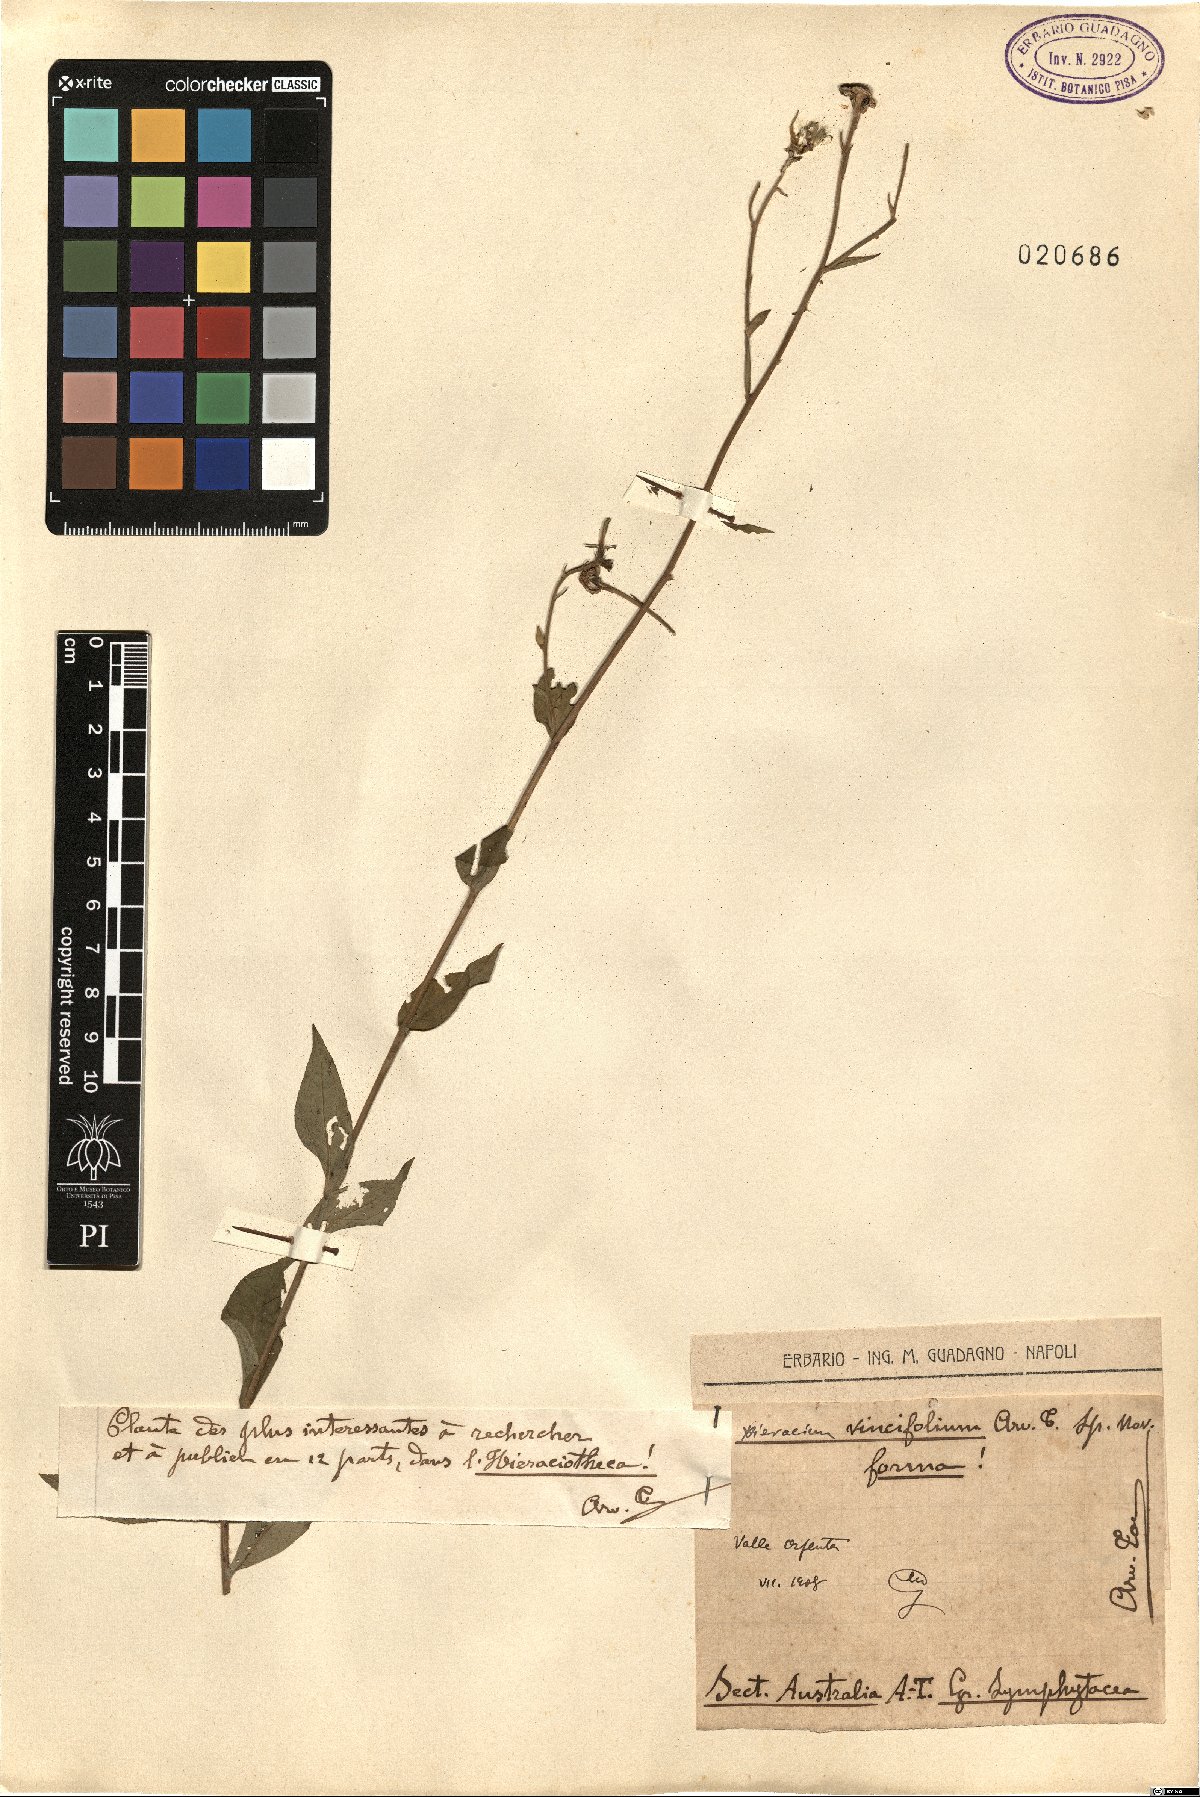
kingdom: Plantae
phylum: Tracheophyta
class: Magnoliopsida
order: Asterales
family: Asteraceae
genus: Hieracium
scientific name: Hieracium vincifolium
